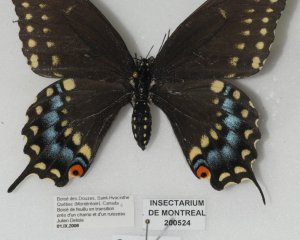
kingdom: Animalia
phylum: Arthropoda
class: Insecta
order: Lepidoptera
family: Papilionidae
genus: Papilio
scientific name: Papilio polyxenes
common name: Black Swallowtail
